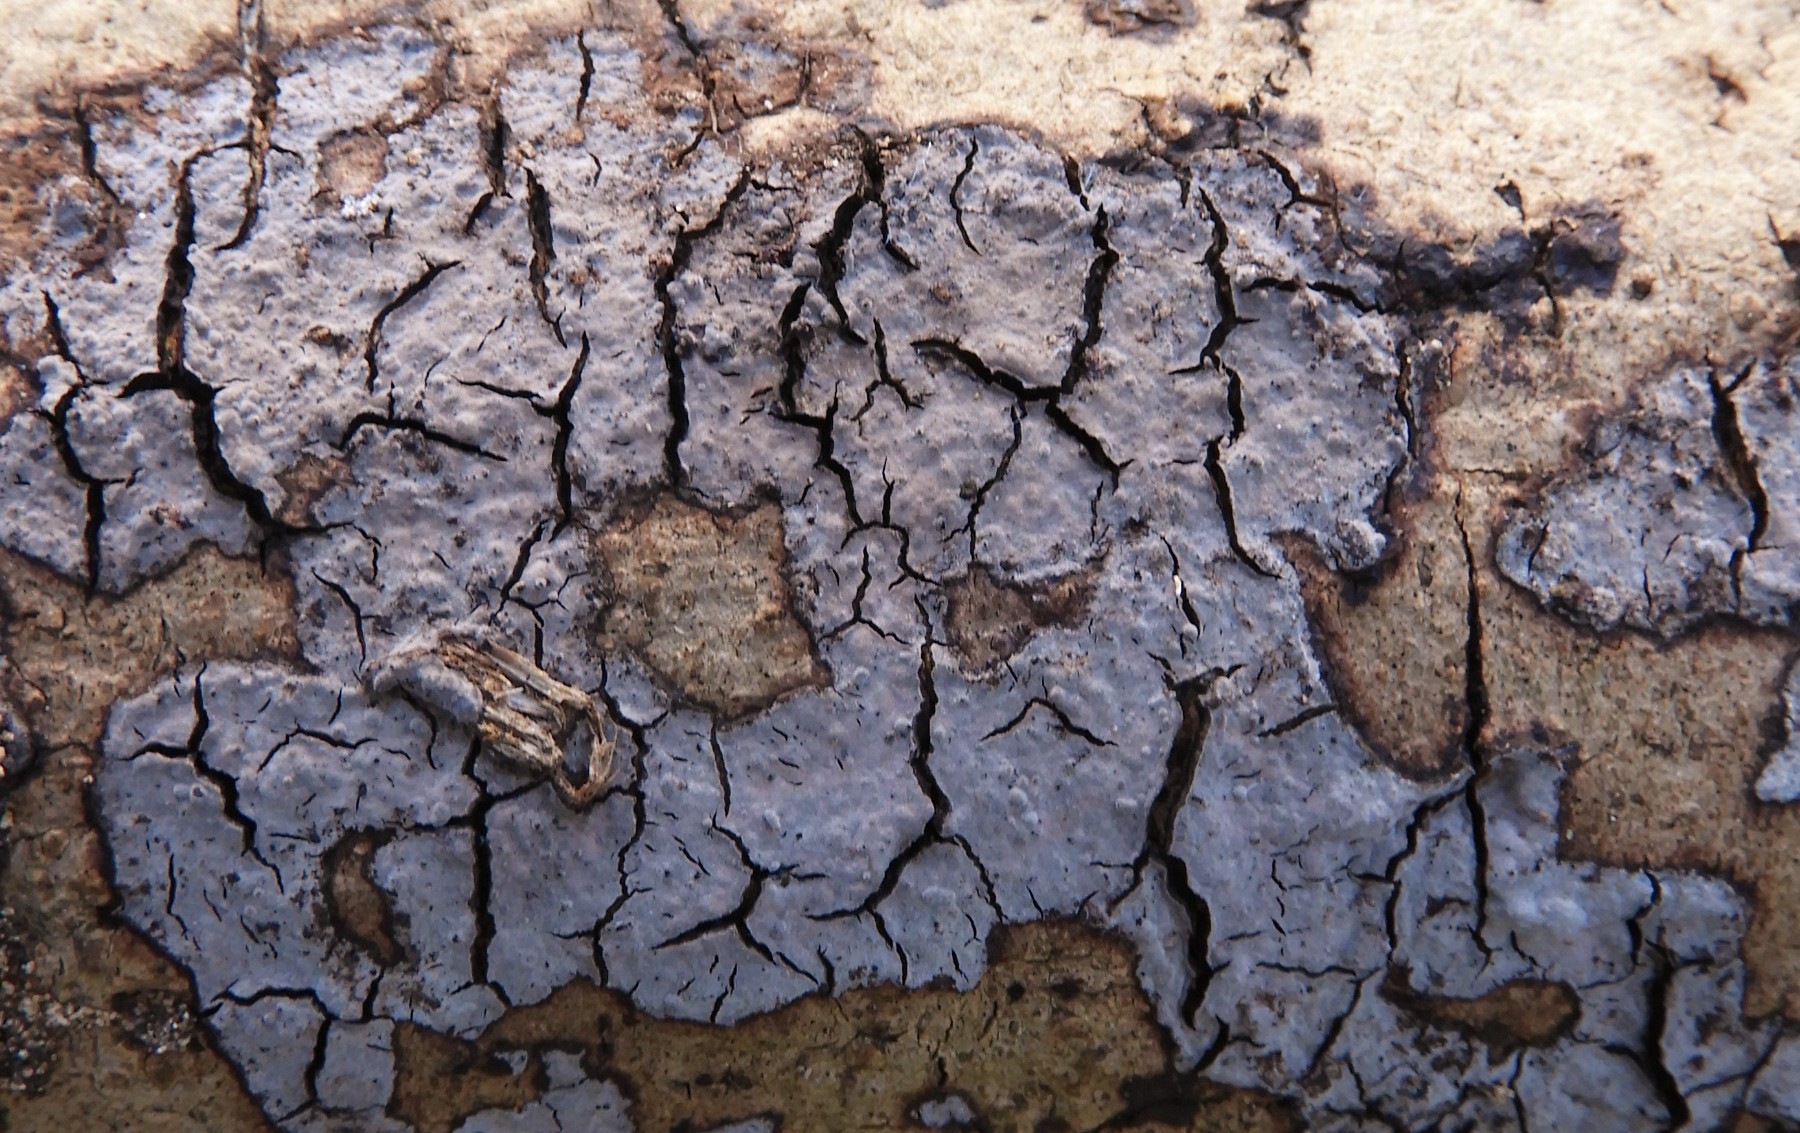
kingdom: Fungi
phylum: Basidiomycota
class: Agaricomycetes
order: Russulales
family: Peniophoraceae
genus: Peniophora
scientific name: Peniophora quercina
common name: ege-voksskind
